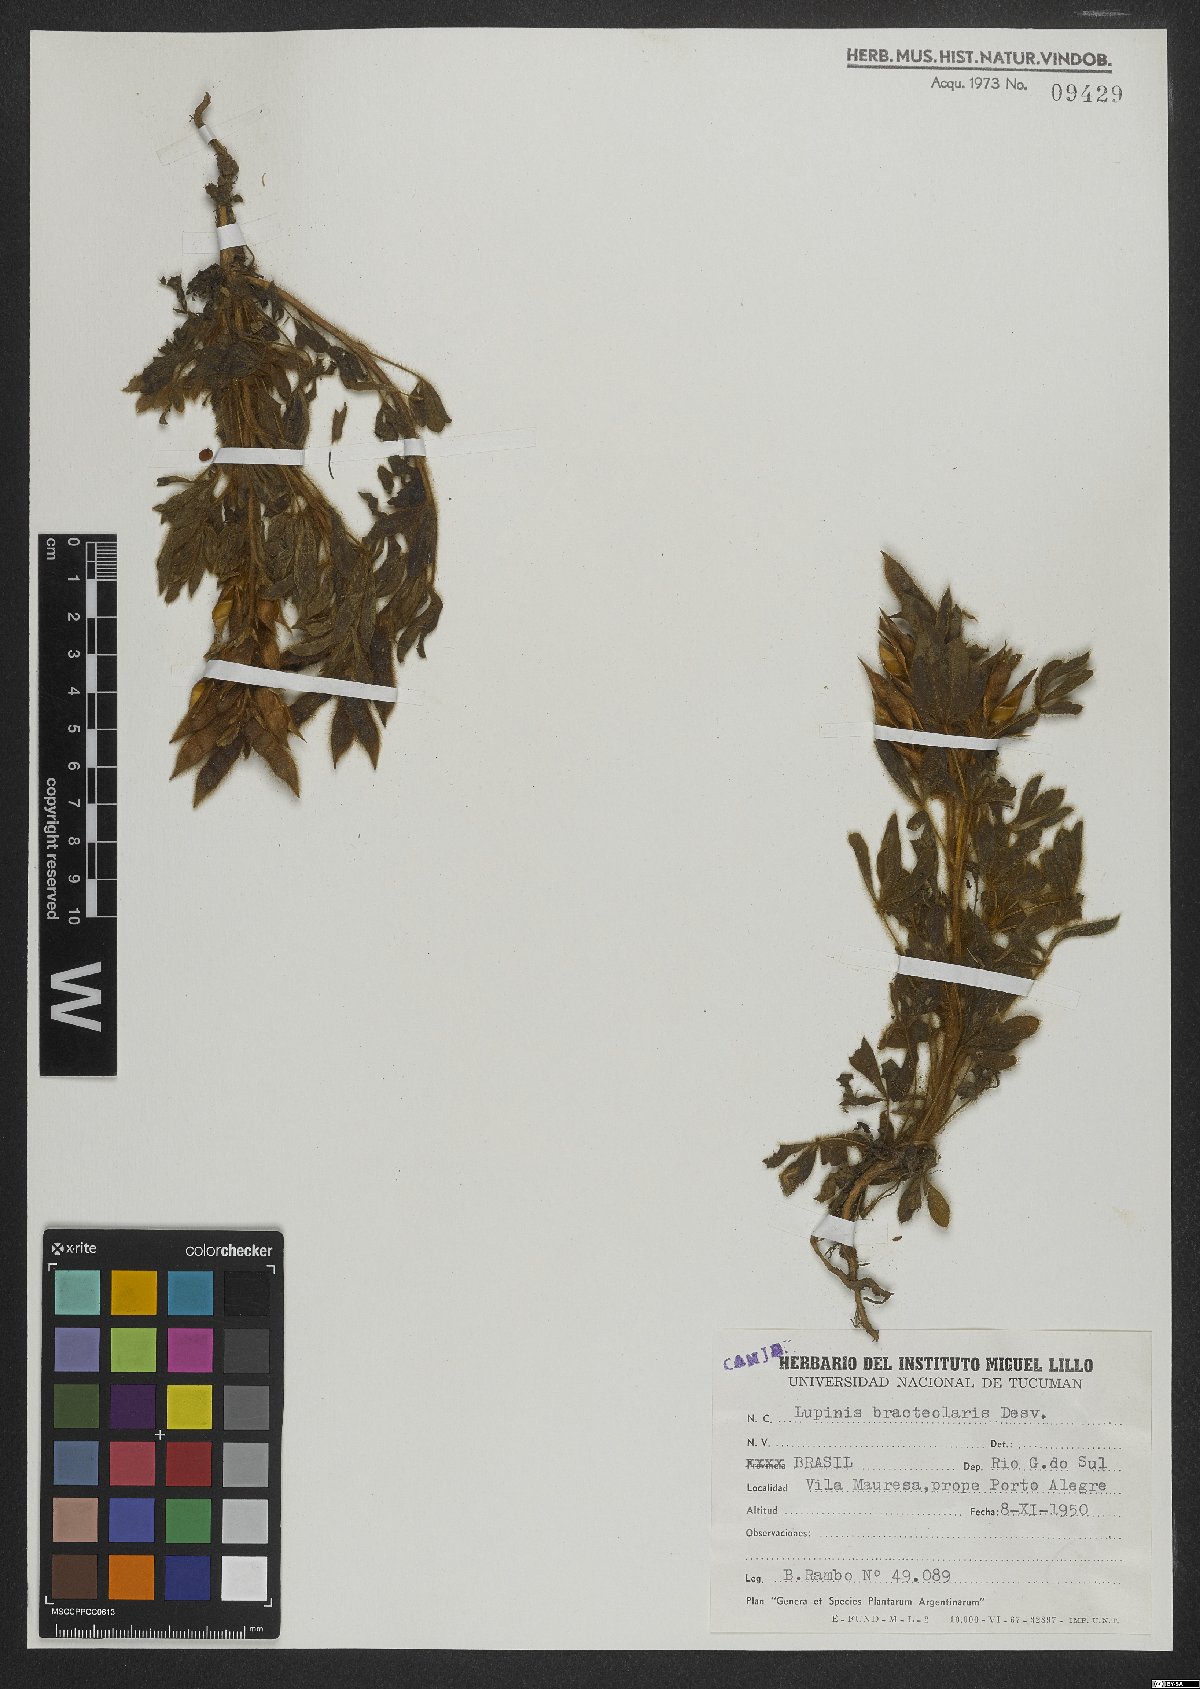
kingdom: Plantae
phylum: Tracheophyta
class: Magnoliopsida
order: Fabales
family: Fabaceae
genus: Lupinus
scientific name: Lupinus bracteolaris
